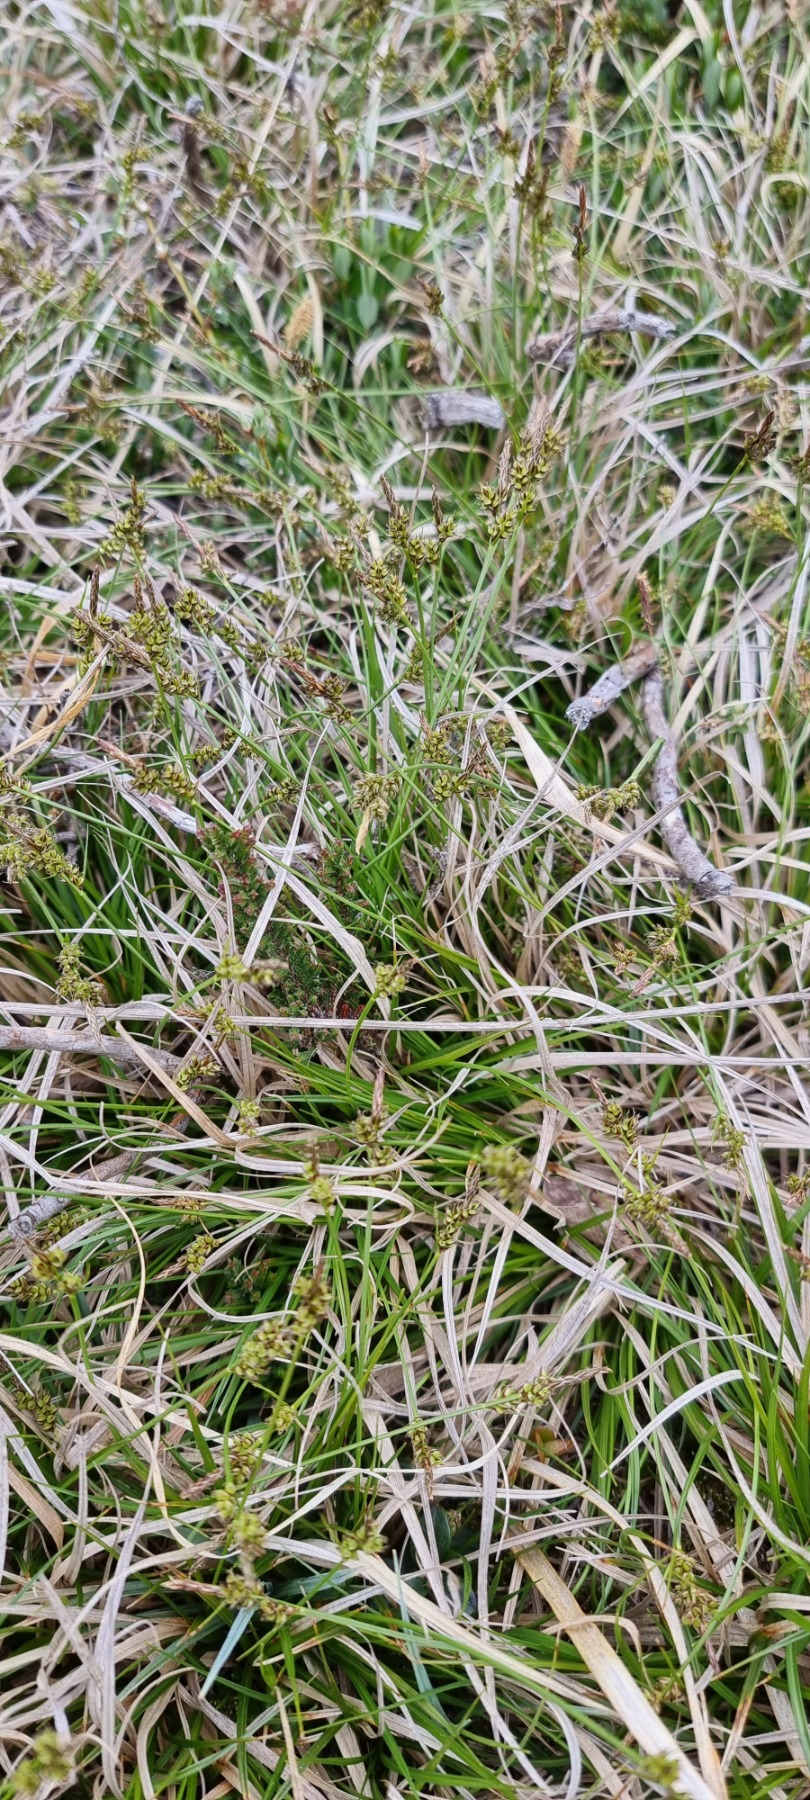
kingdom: Plantae
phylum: Tracheophyta
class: Liliopsida
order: Poales
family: Cyperaceae
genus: Carex
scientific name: Carex pilulifera
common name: Pille-star
